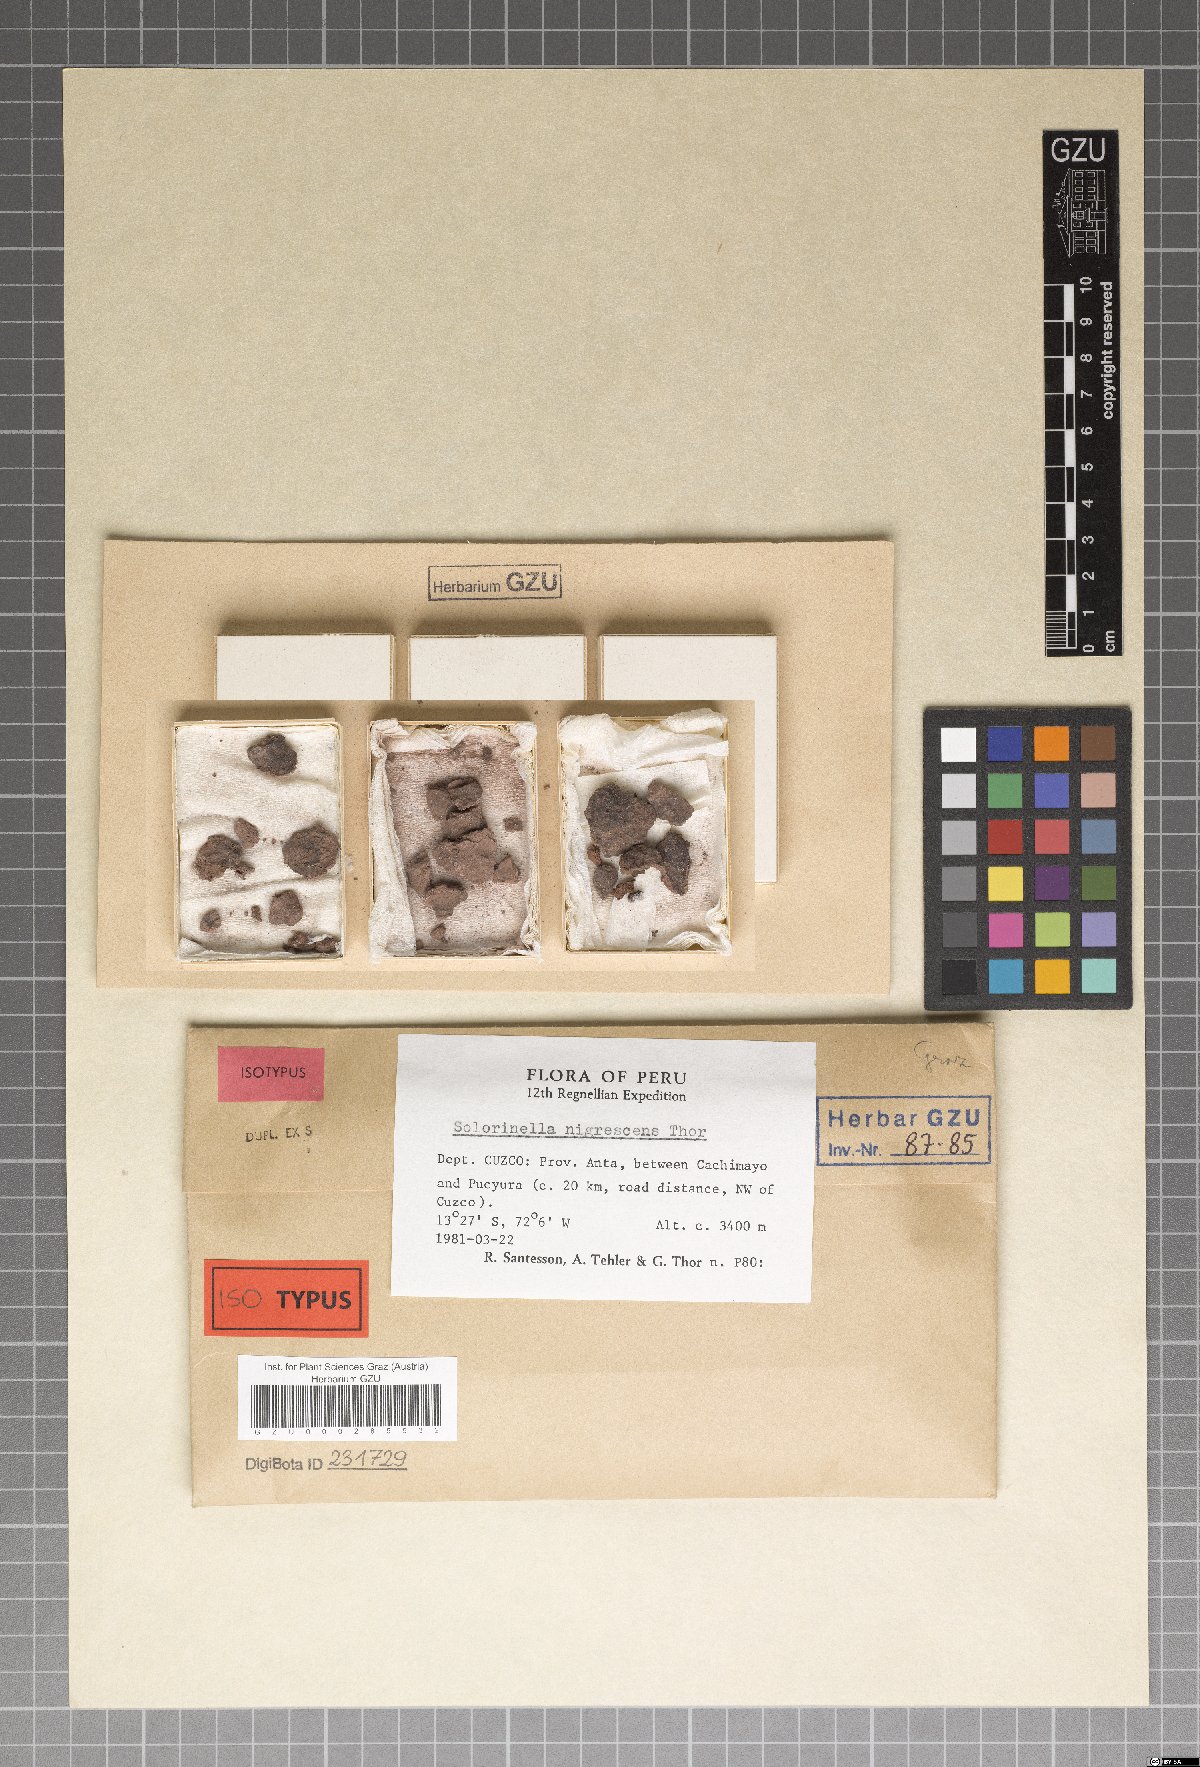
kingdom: Fungi
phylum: Ascomycota
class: Lecanoromycetes
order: Ostropales
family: Gomphillaceae
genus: Gyalidea
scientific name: Gyalidea asteriscus
